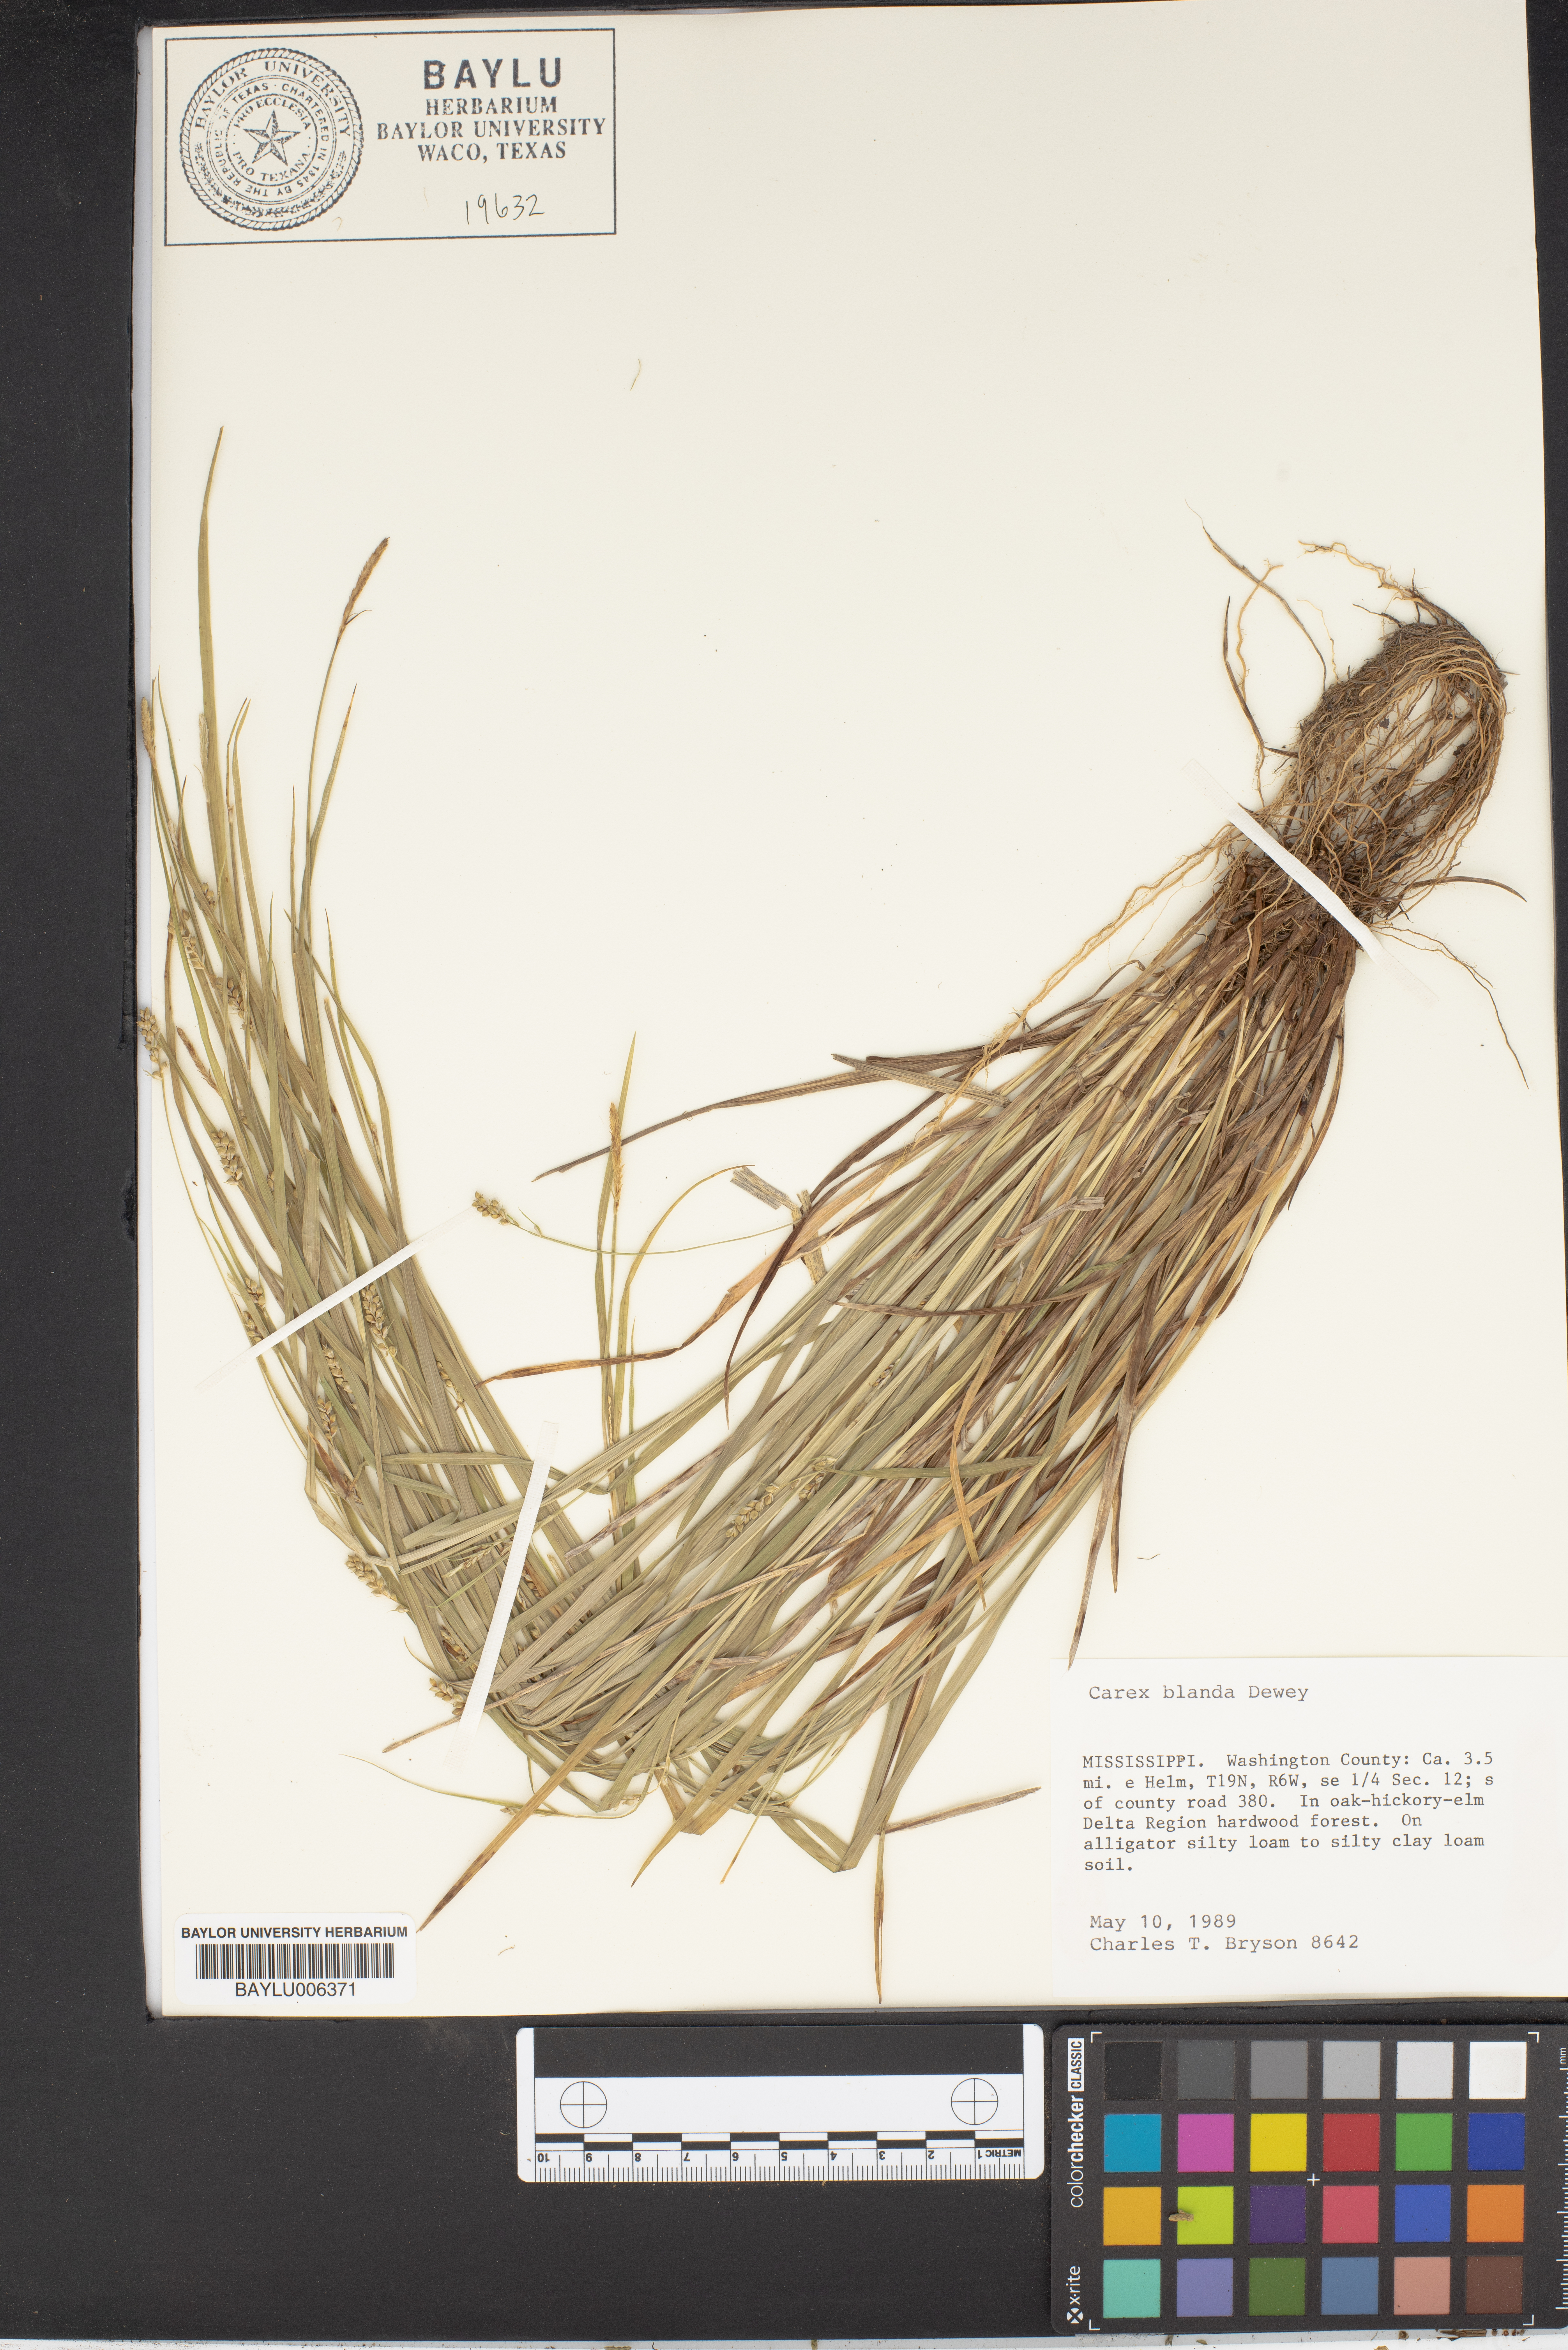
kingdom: Plantae
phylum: Tracheophyta
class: Liliopsida
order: Poales
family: Cyperaceae
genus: Carex
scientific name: Carex blanda
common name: Bland sedge
